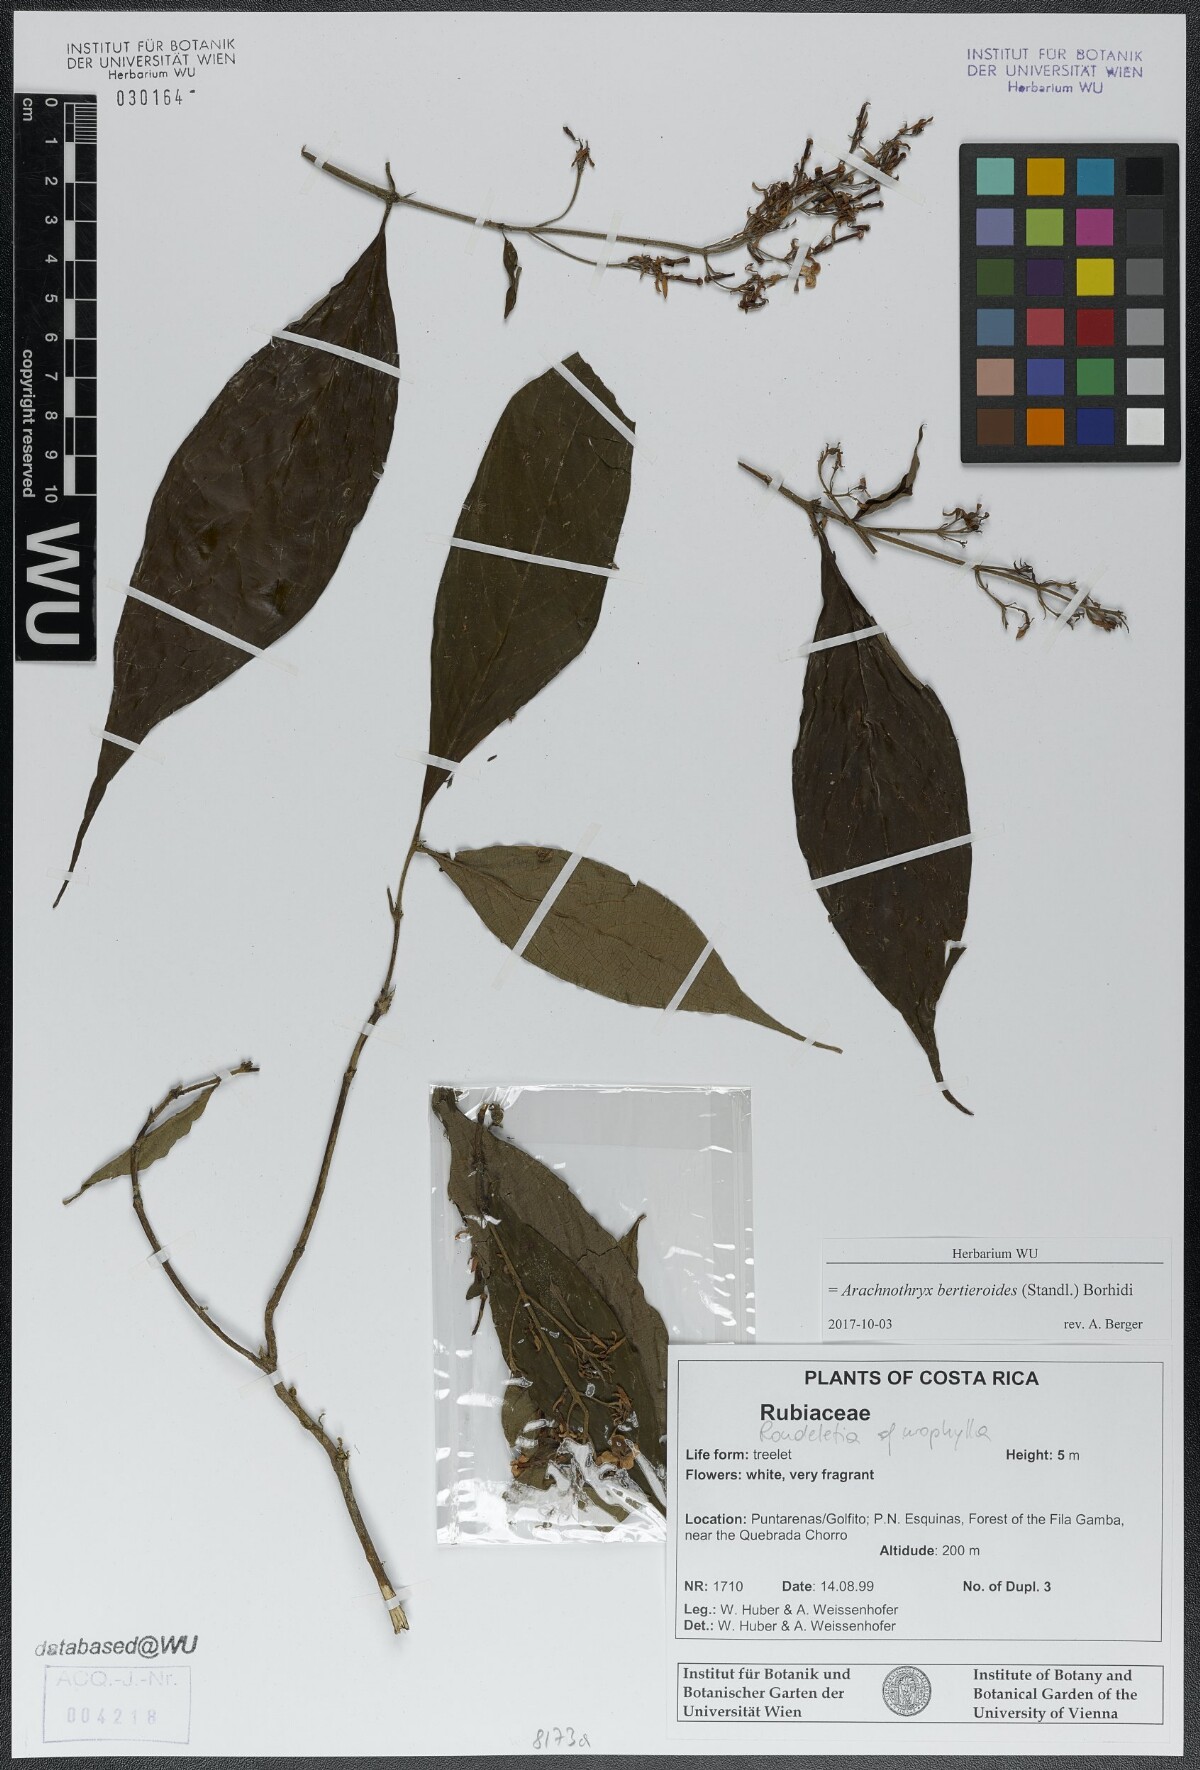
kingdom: Plantae
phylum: Tracheophyta
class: Magnoliopsida
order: Gentianales
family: Rubiaceae
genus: Arachnothryx
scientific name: Arachnothryx bertieroides
